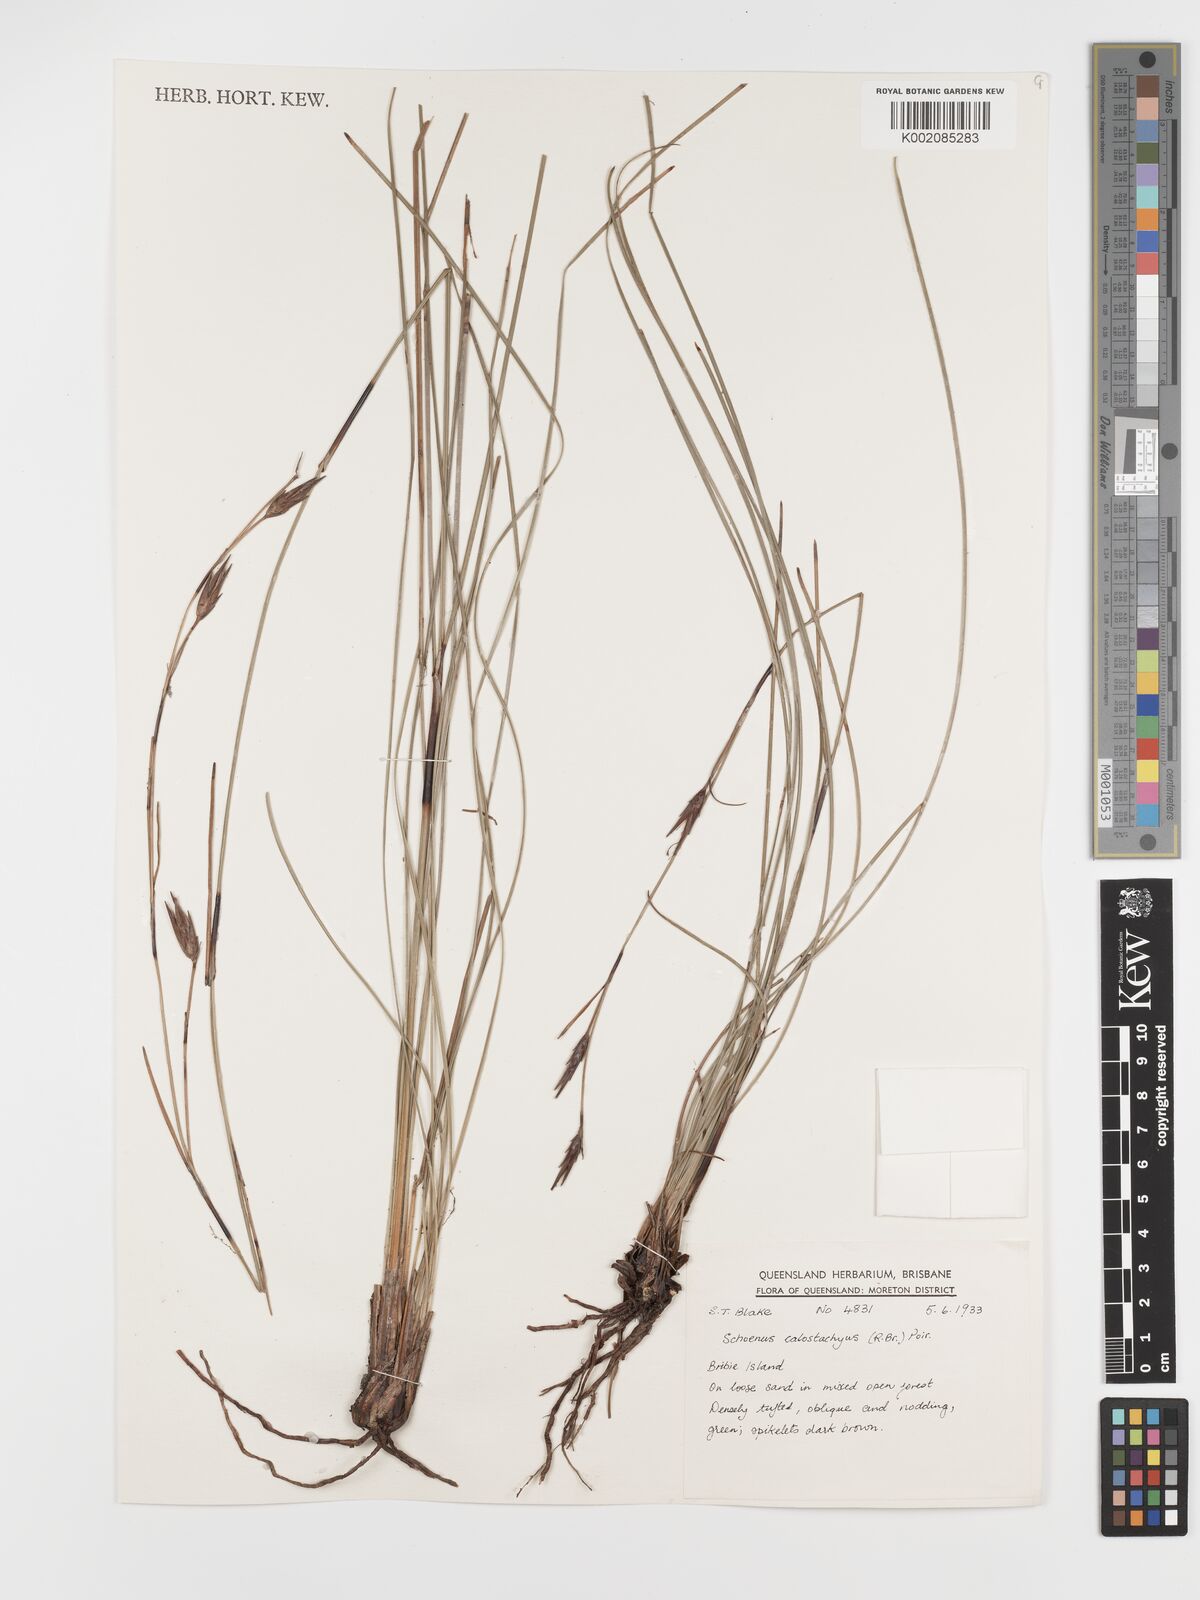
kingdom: Plantae
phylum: Tracheophyta
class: Liliopsida
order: Poales
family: Cyperaceae
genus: Schoenus
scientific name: Schoenus calostachyus
